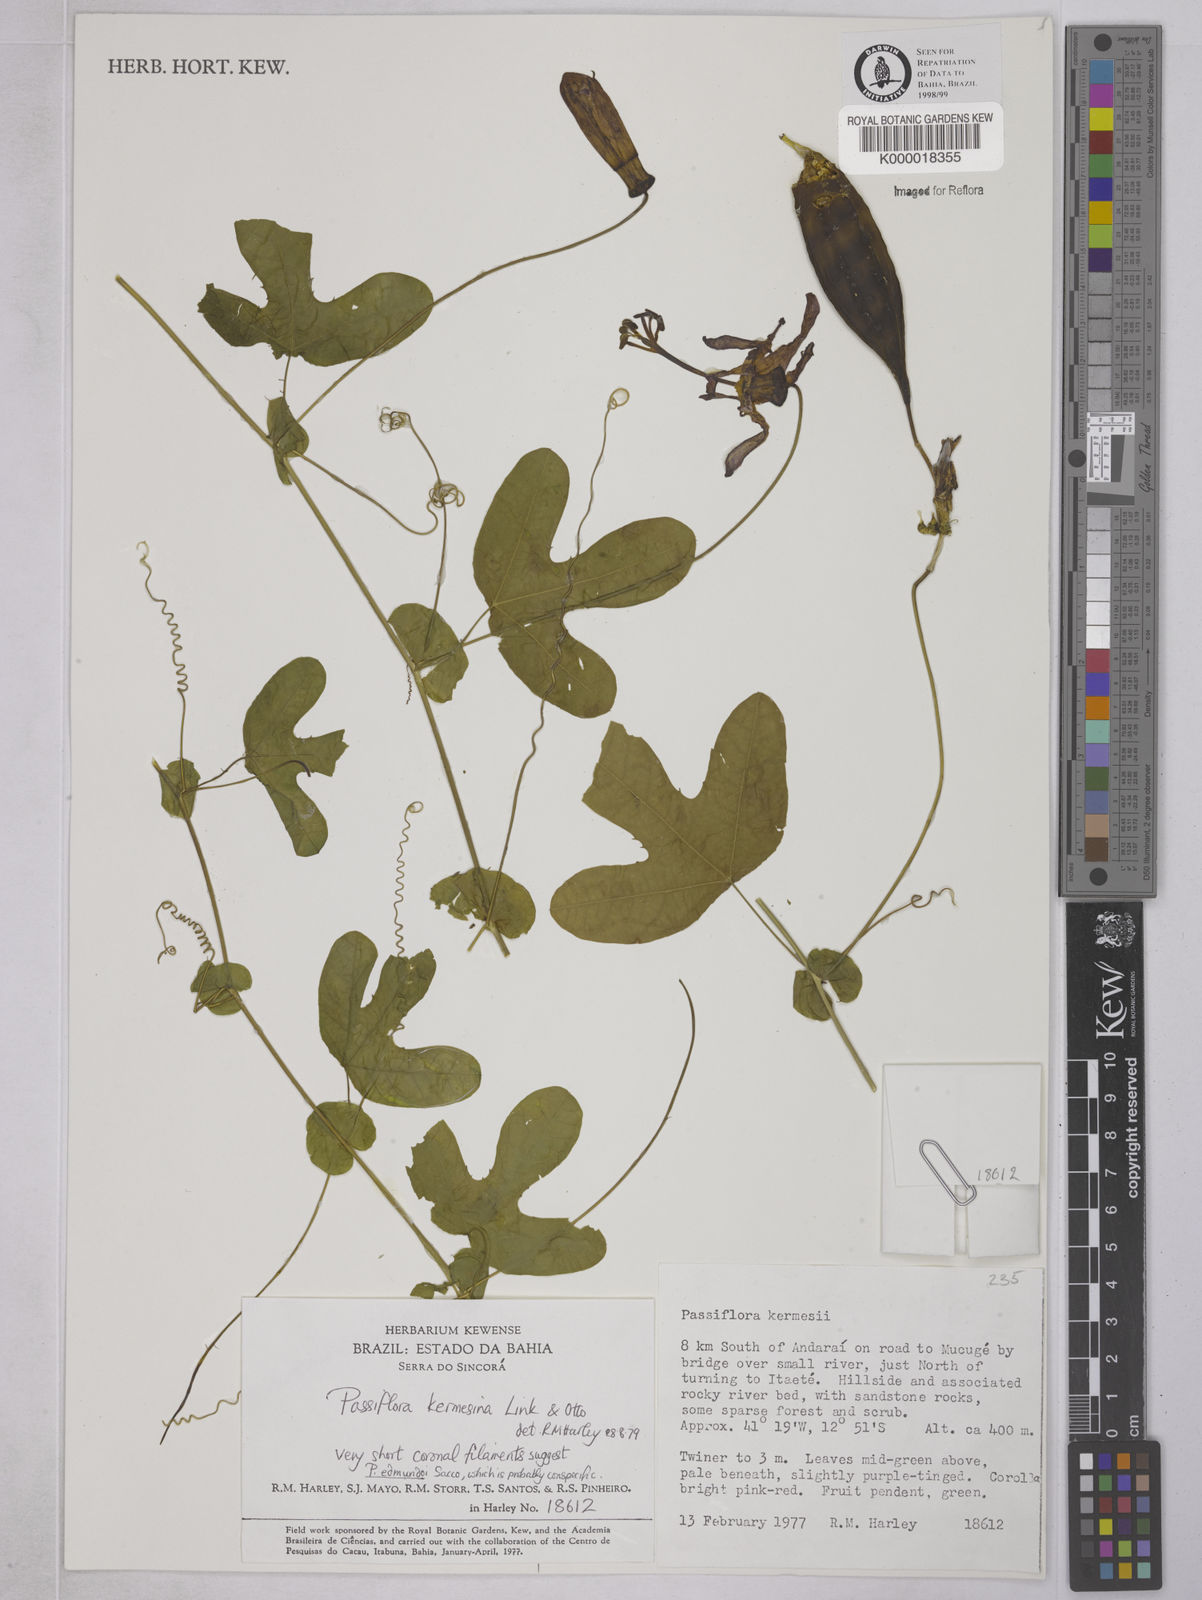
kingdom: Plantae
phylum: Tracheophyta
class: Magnoliopsida
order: Malpighiales
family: Passifloraceae
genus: Passiflora
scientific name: Passiflora kermesina
